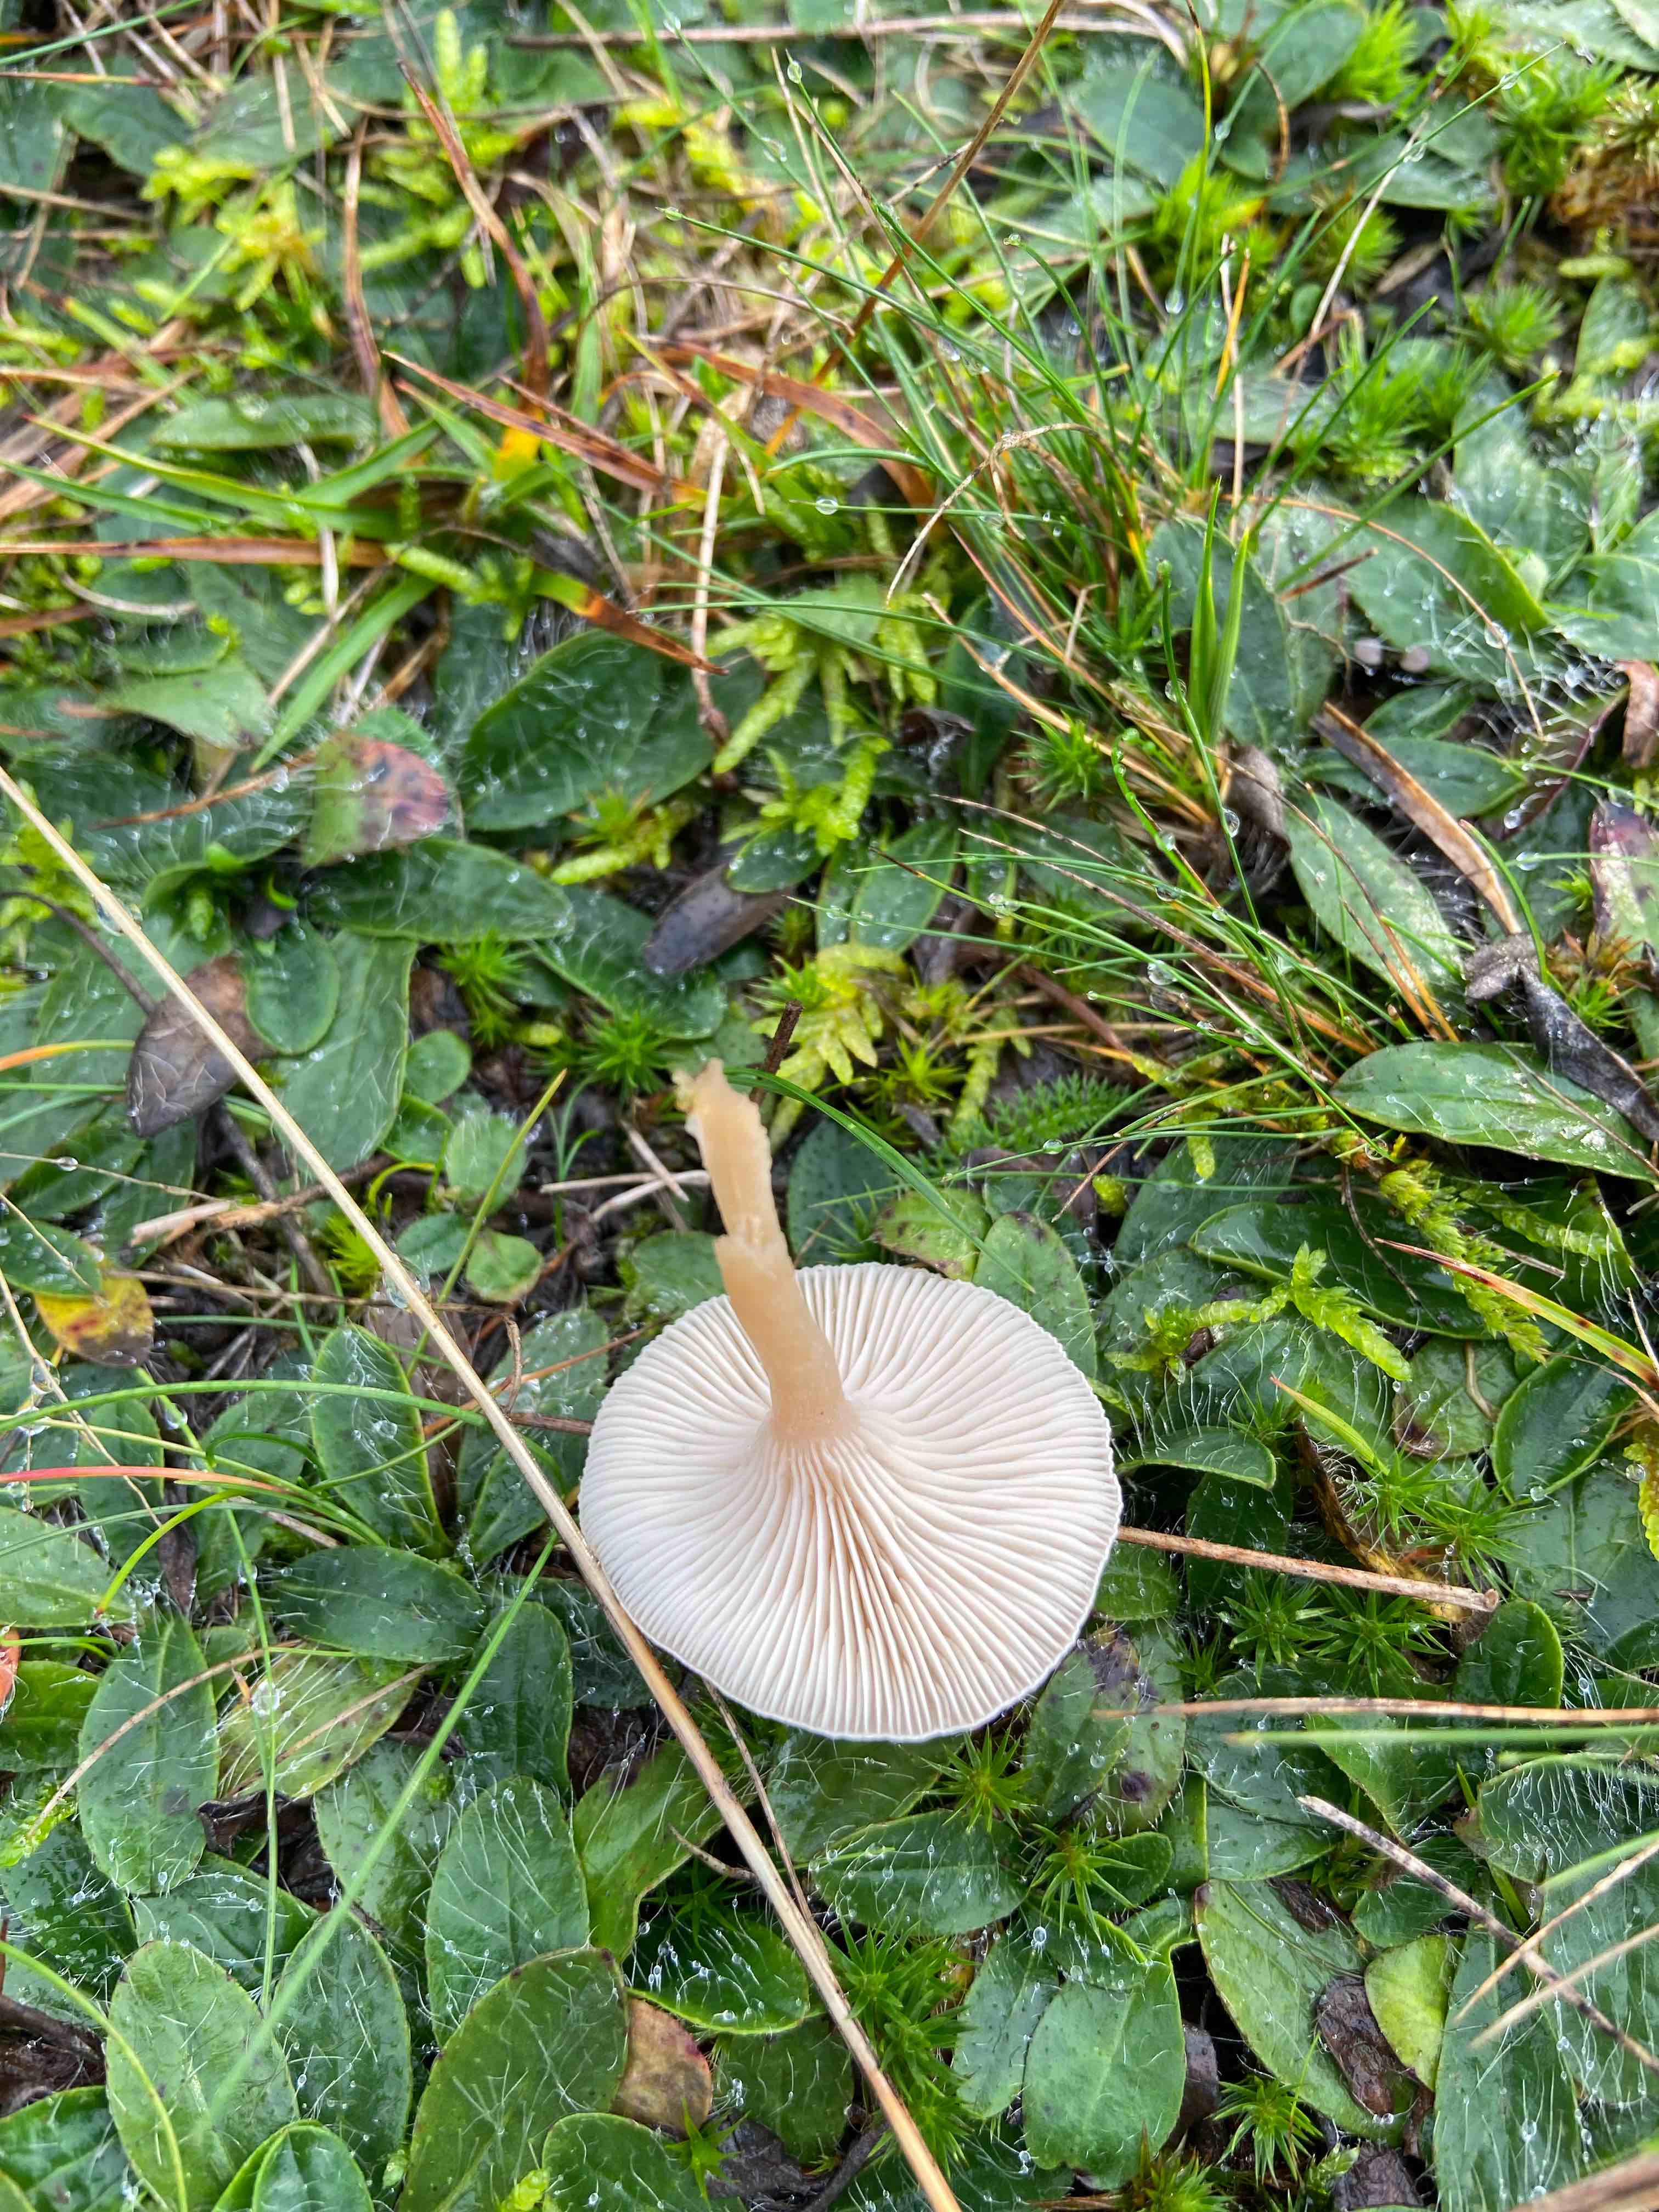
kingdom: Fungi
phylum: Basidiomycota
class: Agaricomycetes
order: Agaricales
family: Tricholomataceae
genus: Clitocybe
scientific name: Clitocybe
